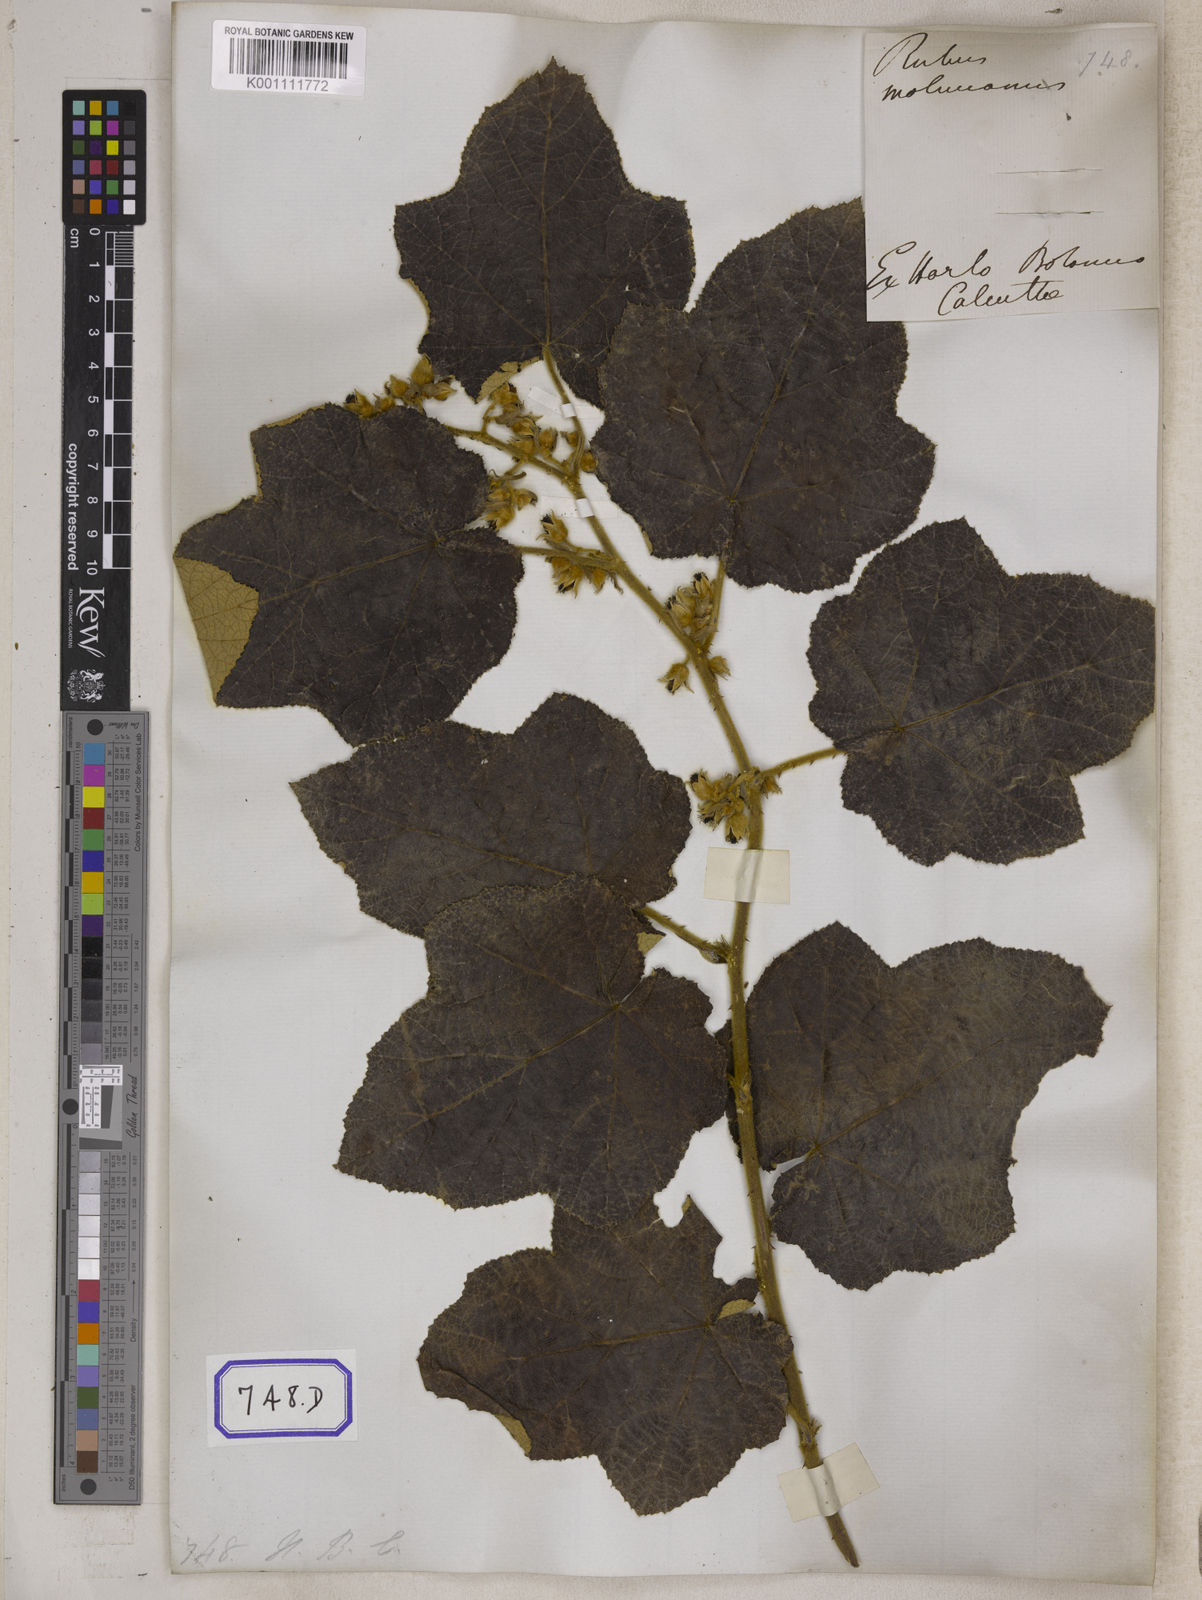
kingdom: Plantae
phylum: Tracheophyta
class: Magnoliopsida
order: Rosales
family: Rosaceae
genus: Rubus
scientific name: Rubus
